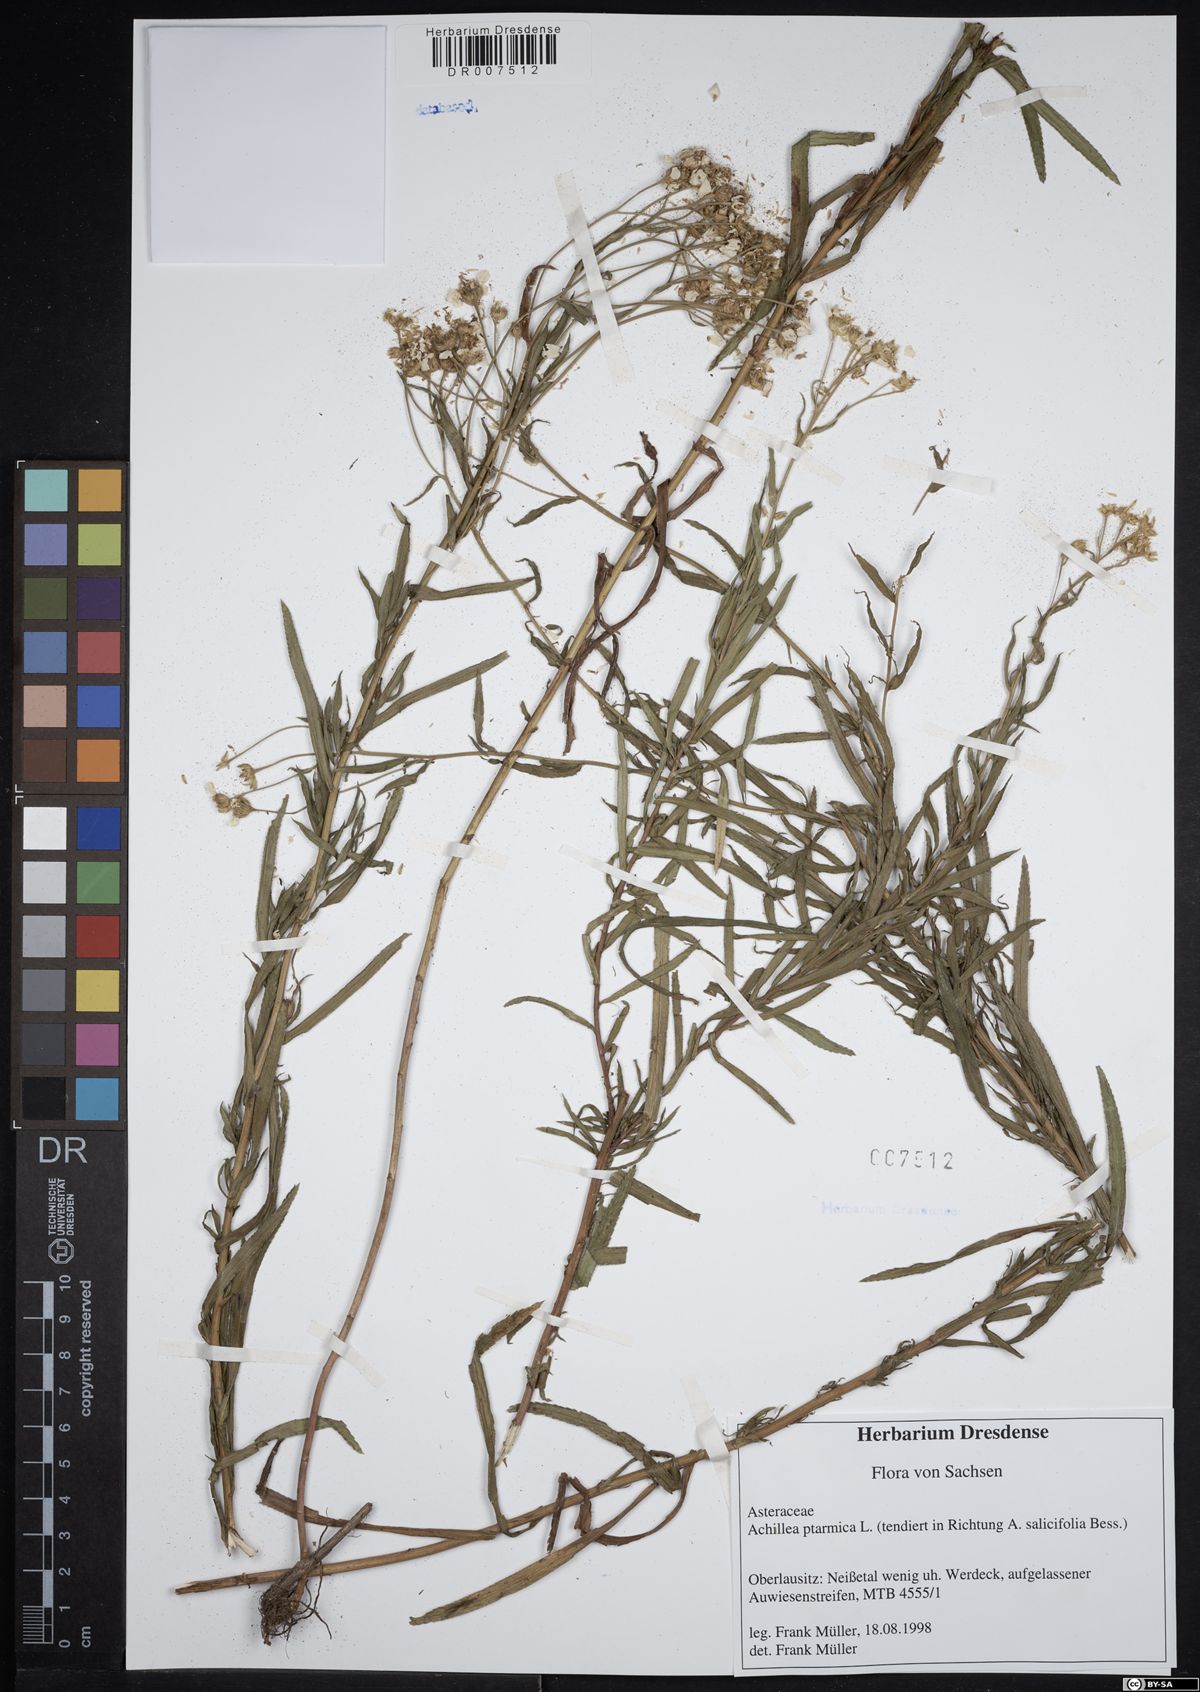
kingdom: Plantae
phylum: Tracheophyta
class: Magnoliopsida
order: Asterales
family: Asteraceae
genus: Achillea
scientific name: Achillea ptarmica
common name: Sneezeweed
